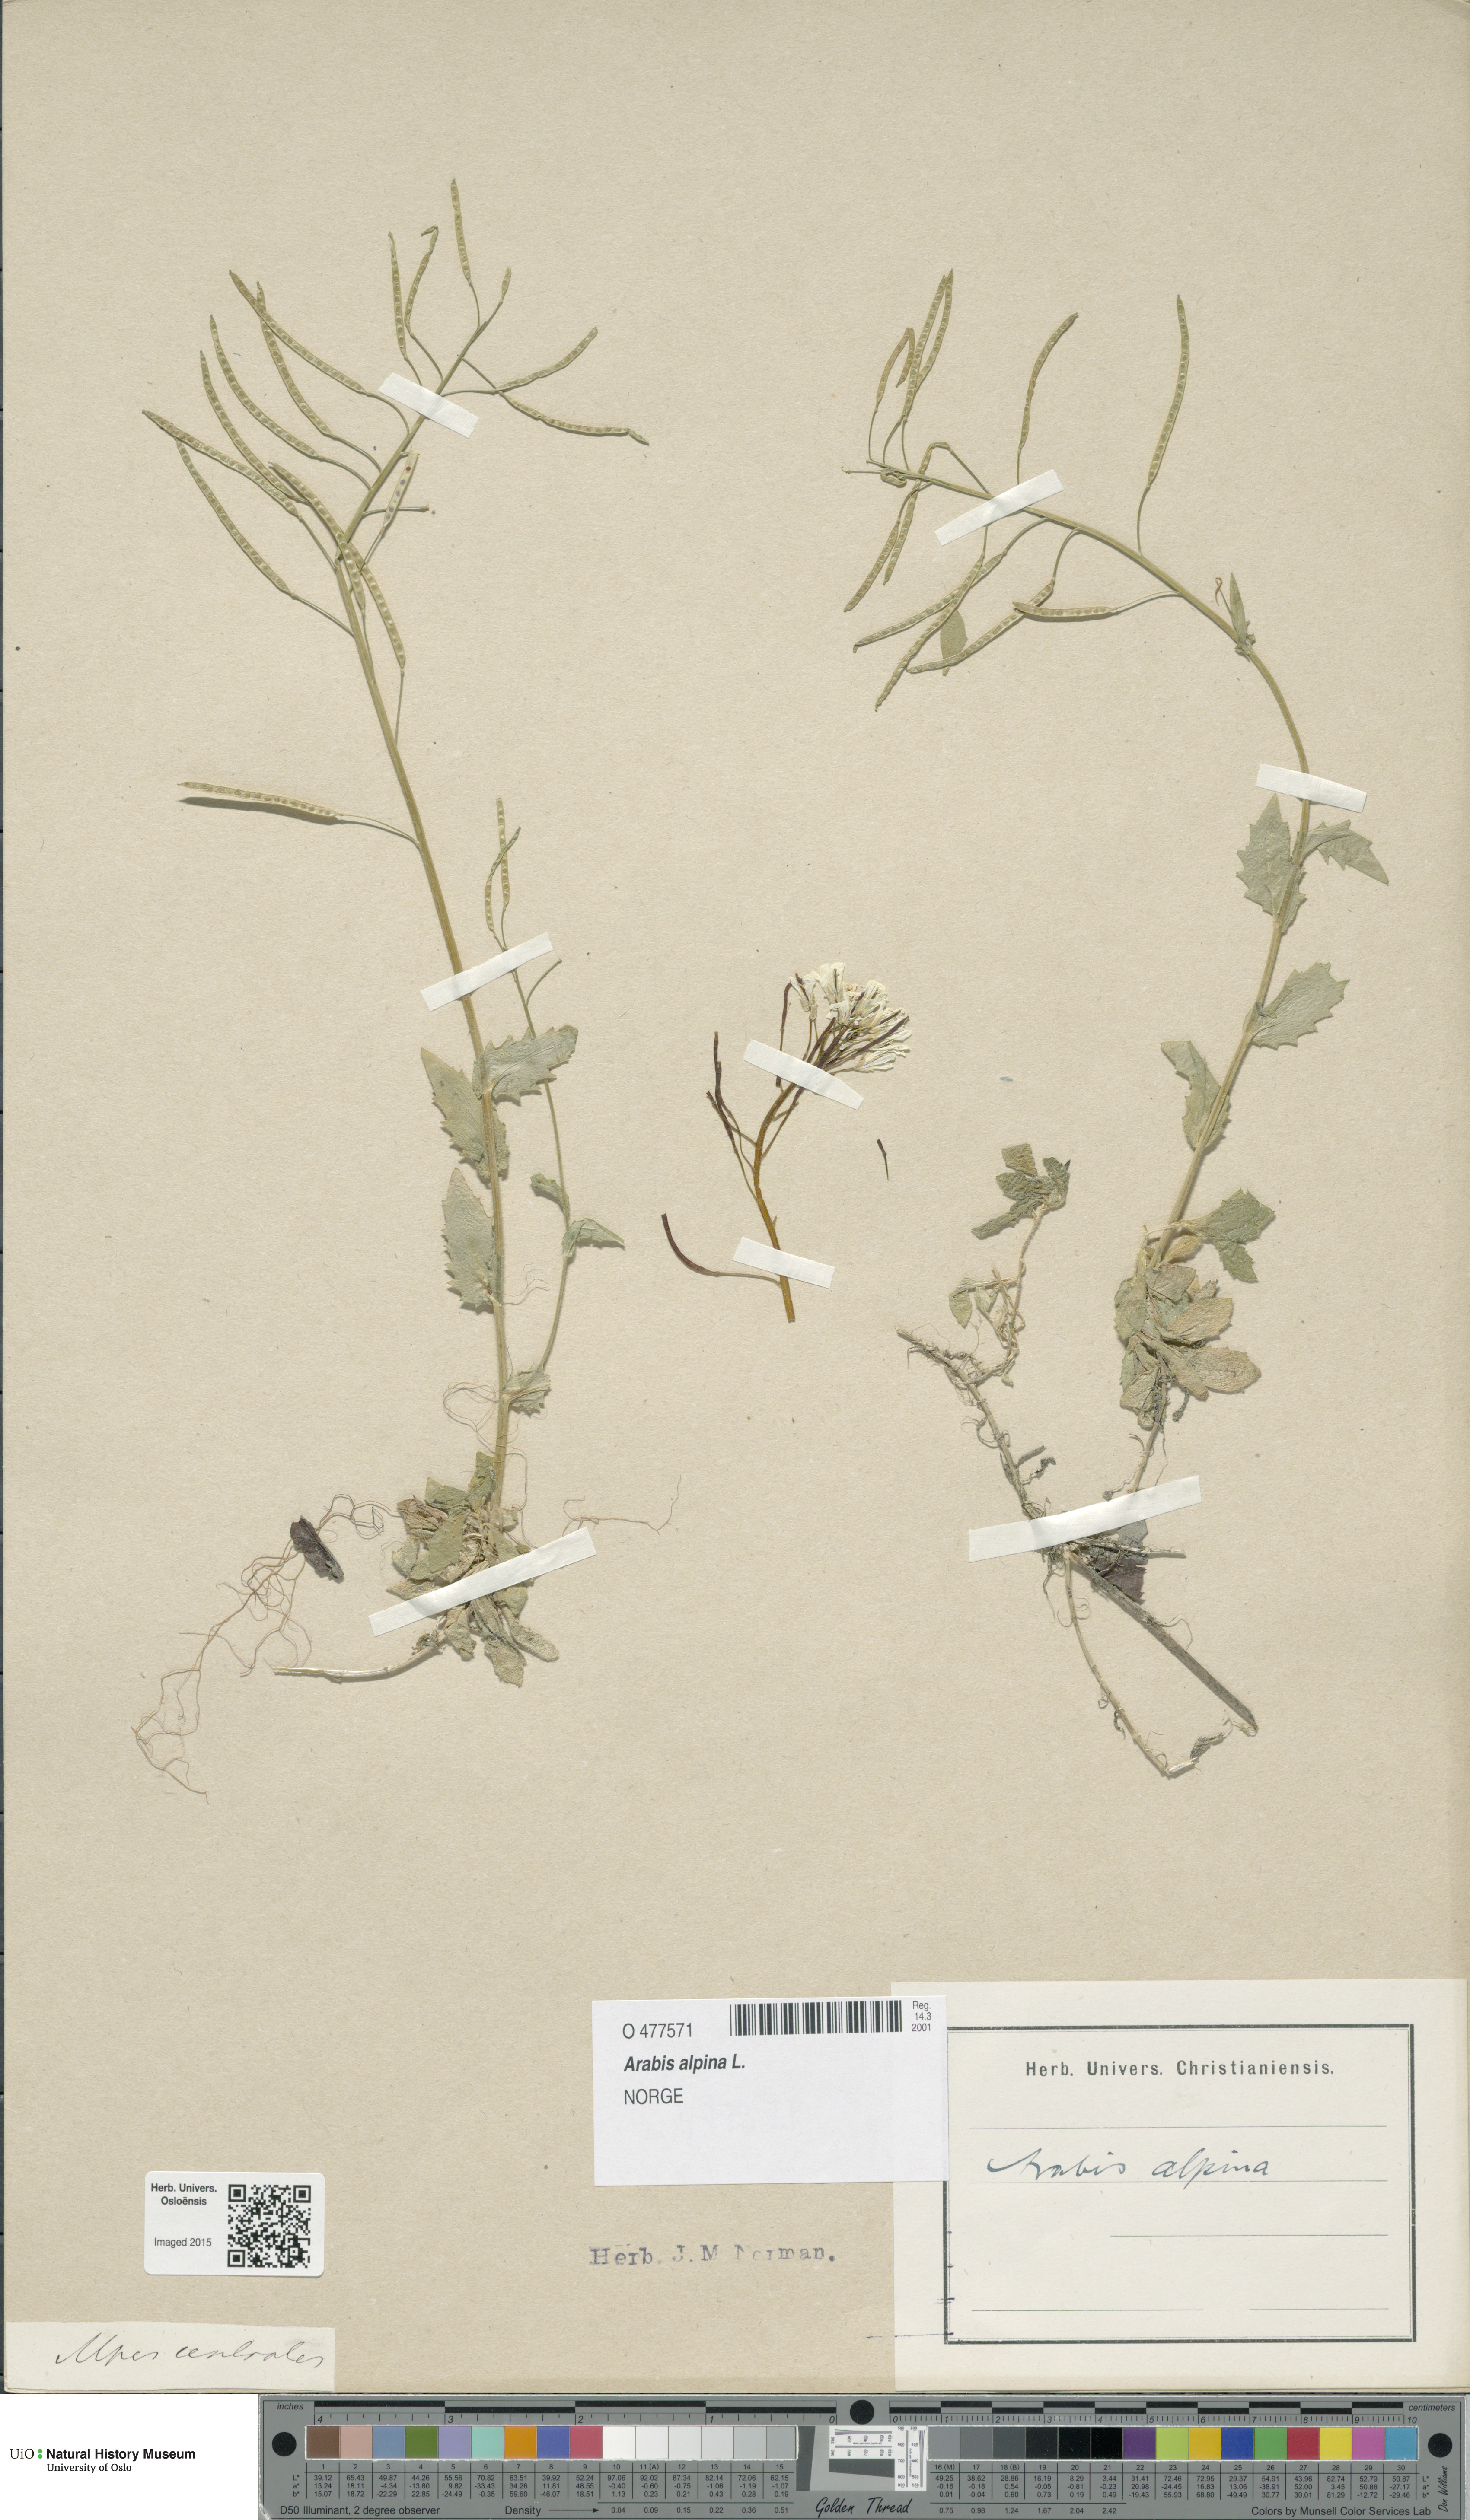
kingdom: Plantae
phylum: Tracheophyta
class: Magnoliopsida
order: Brassicales
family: Brassicaceae
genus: Arabis
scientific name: Arabis alpina
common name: Alpine rock-cress
